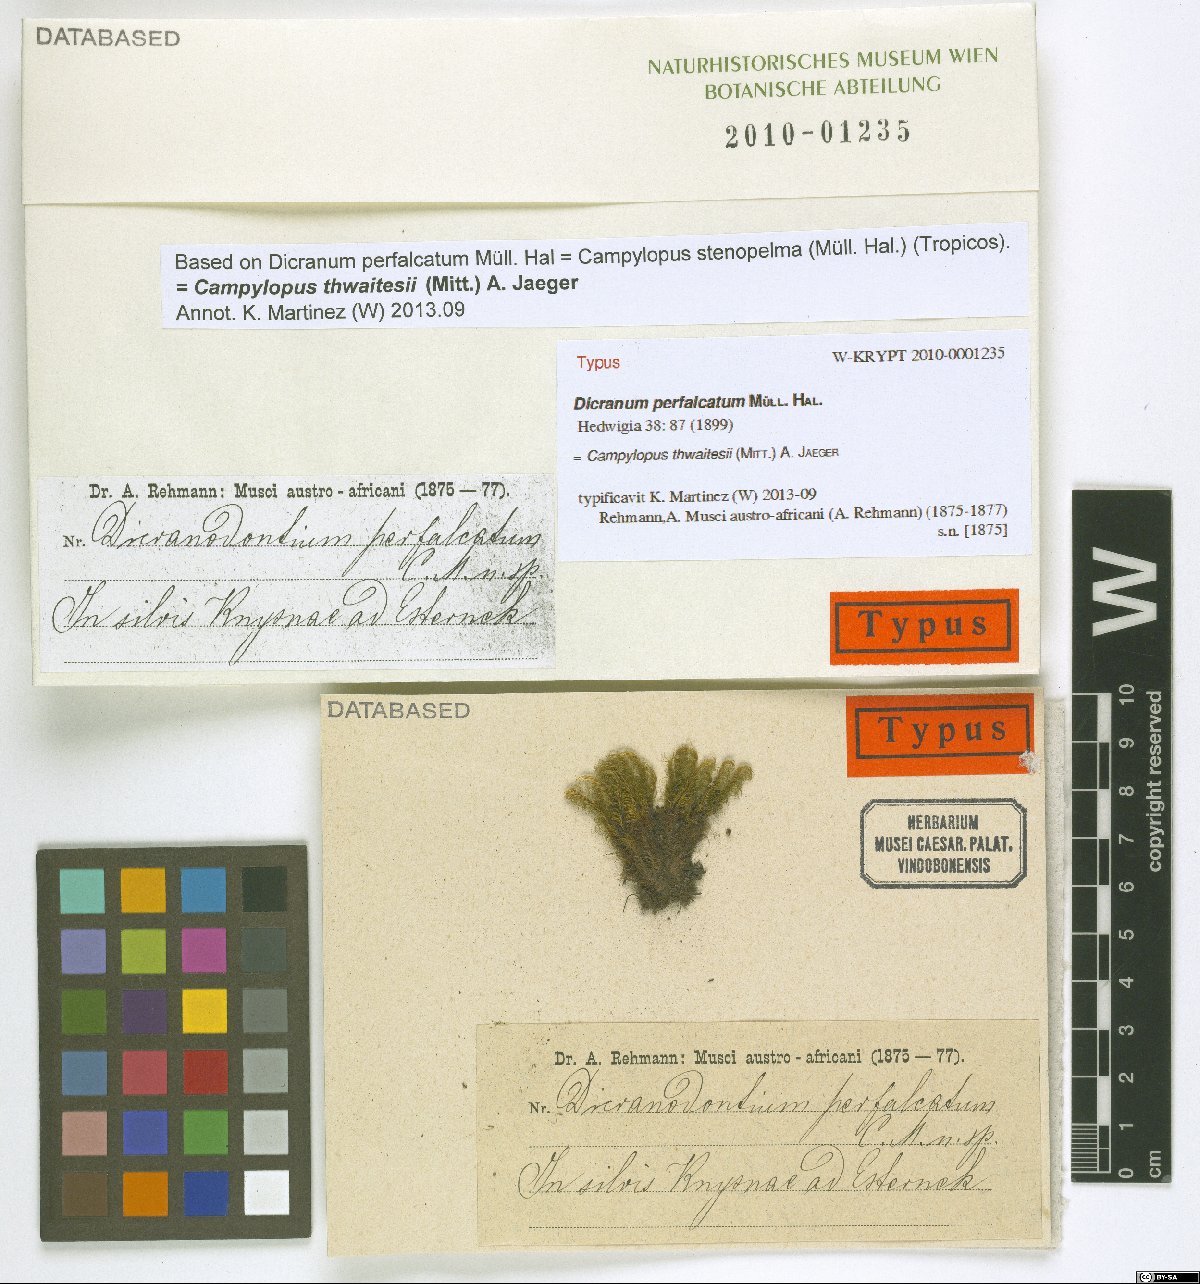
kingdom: Plantae
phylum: Bryophyta
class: Bryopsida
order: Dicranales
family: Leucobryaceae
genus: Campylopus
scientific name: Campylopus
